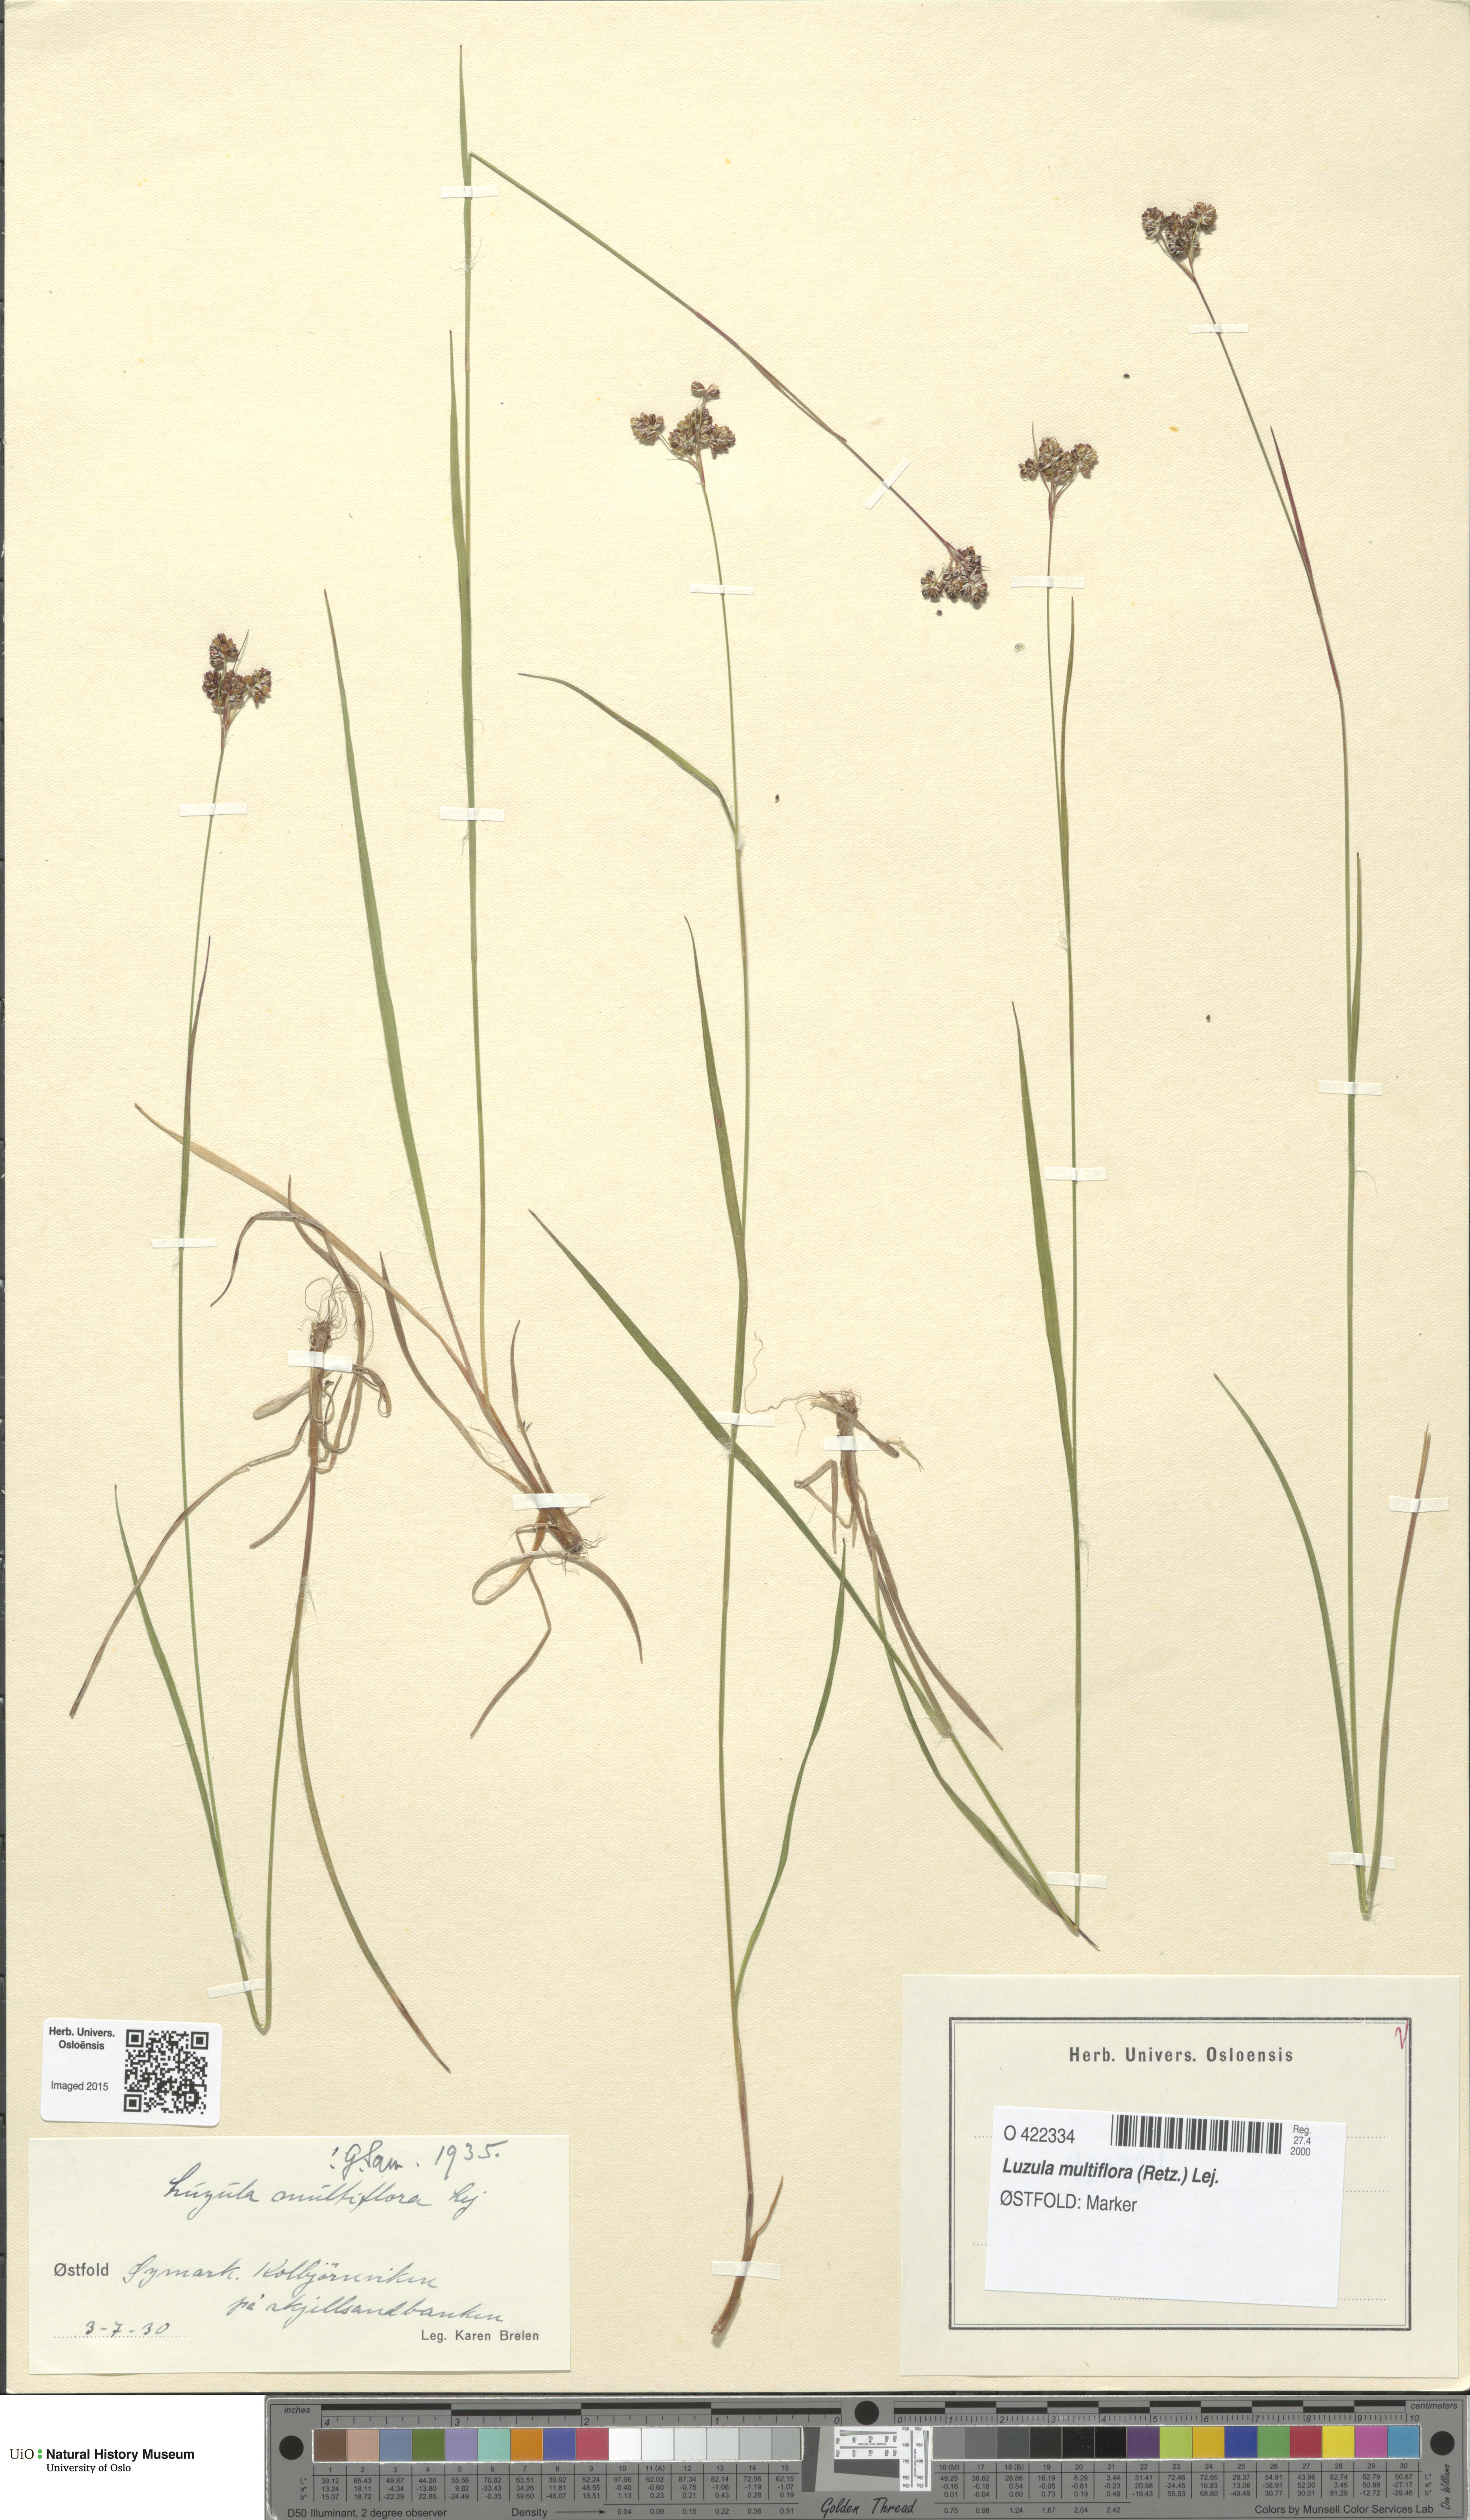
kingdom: Plantae
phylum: Tracheophyta
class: Liliopsida
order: Poales
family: Juncaceae
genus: Luzula
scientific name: Luzula multiflora
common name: Heath wood-rush
